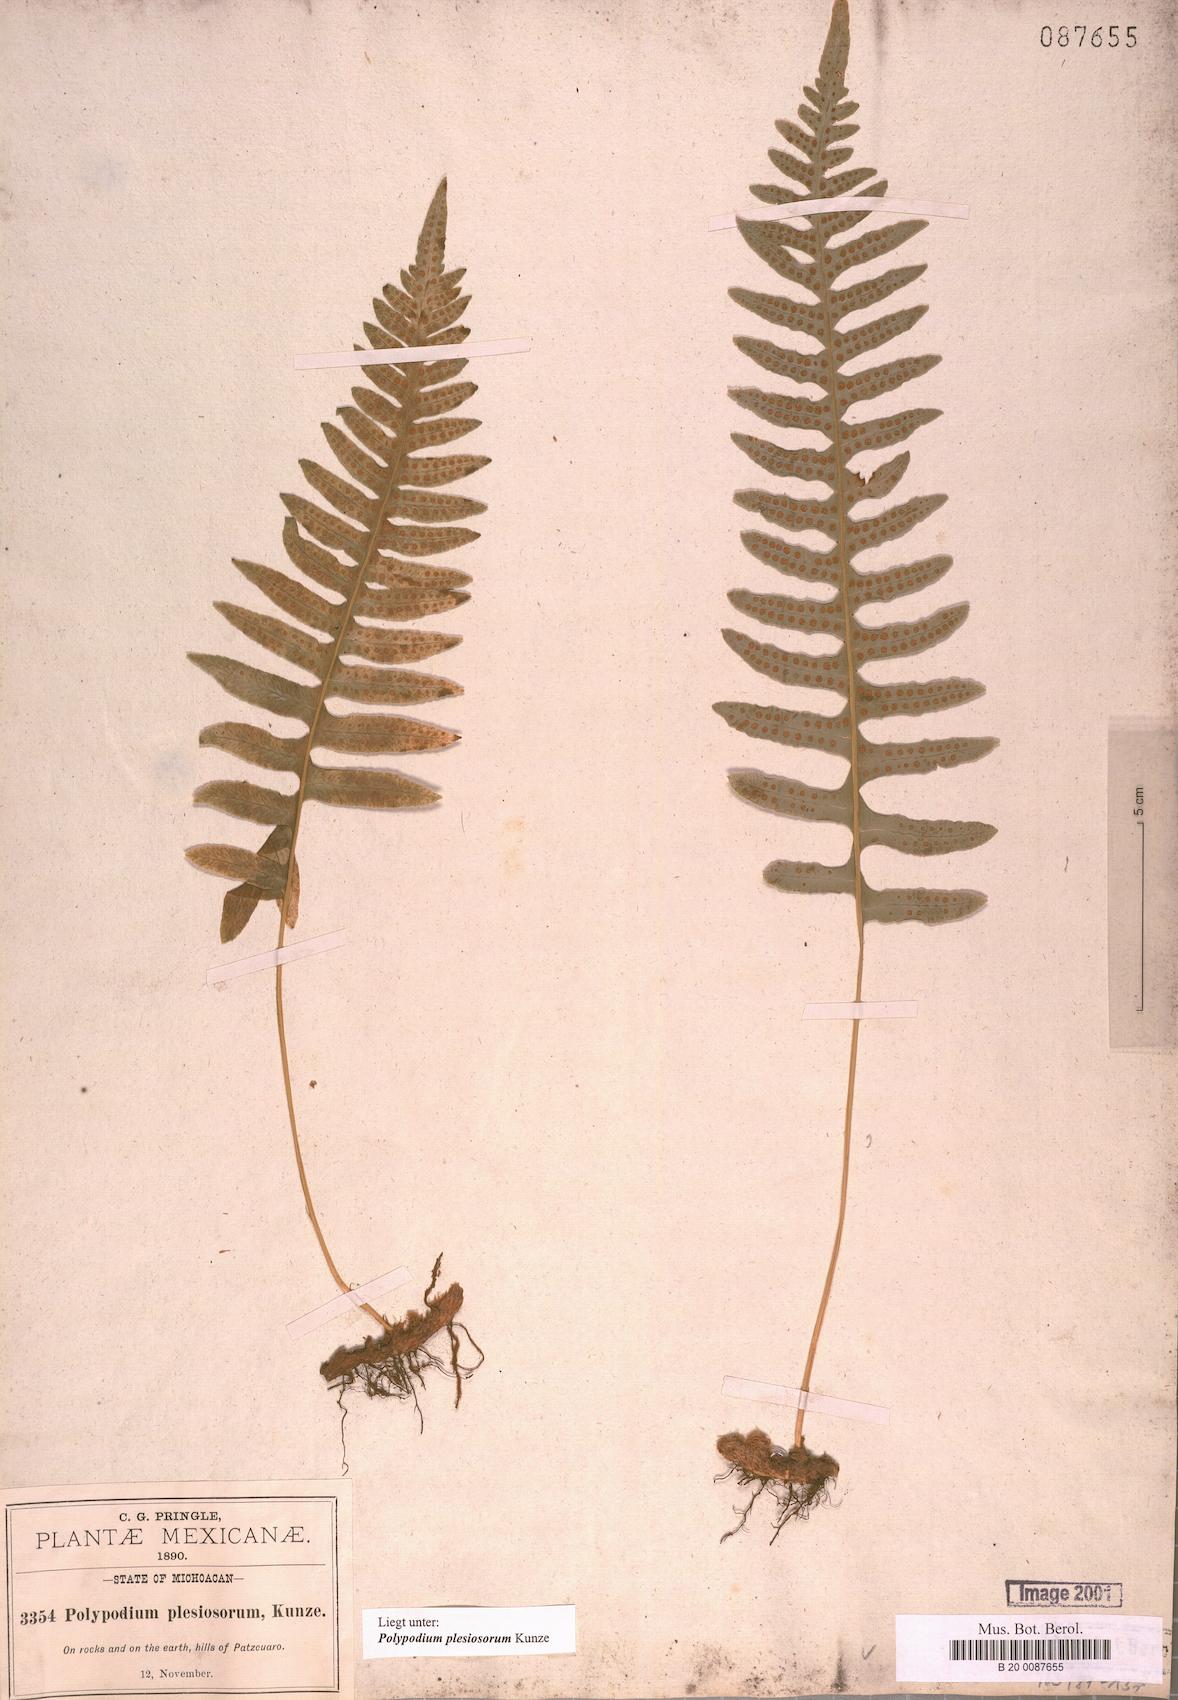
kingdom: Plantae
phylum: Tracheophyta
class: Polypodiopsida
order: Polypodiales
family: Polypodiaceae
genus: Polypodium
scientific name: Polypodium plesiosorum
